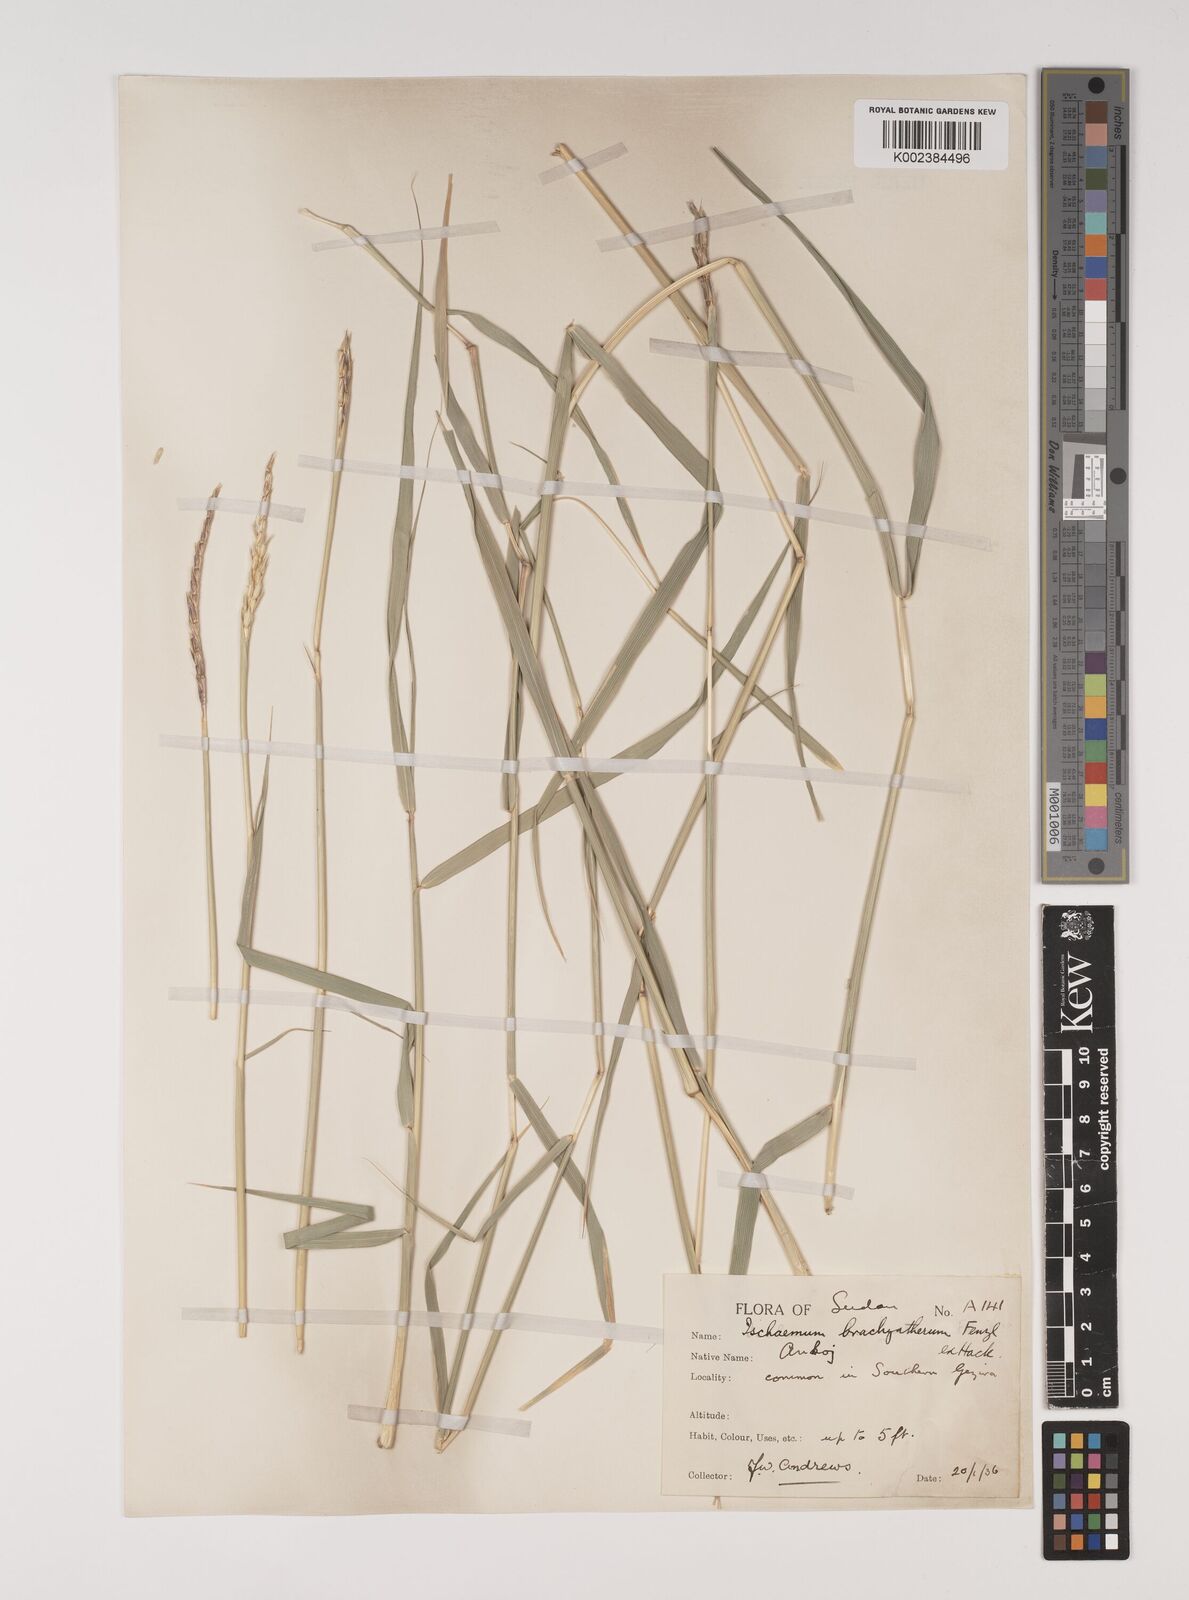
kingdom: Plantae
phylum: Tracheophyta
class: Liliopsida
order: Poales
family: Poaceae
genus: Ischaemum
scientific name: Ischaemum afrum
